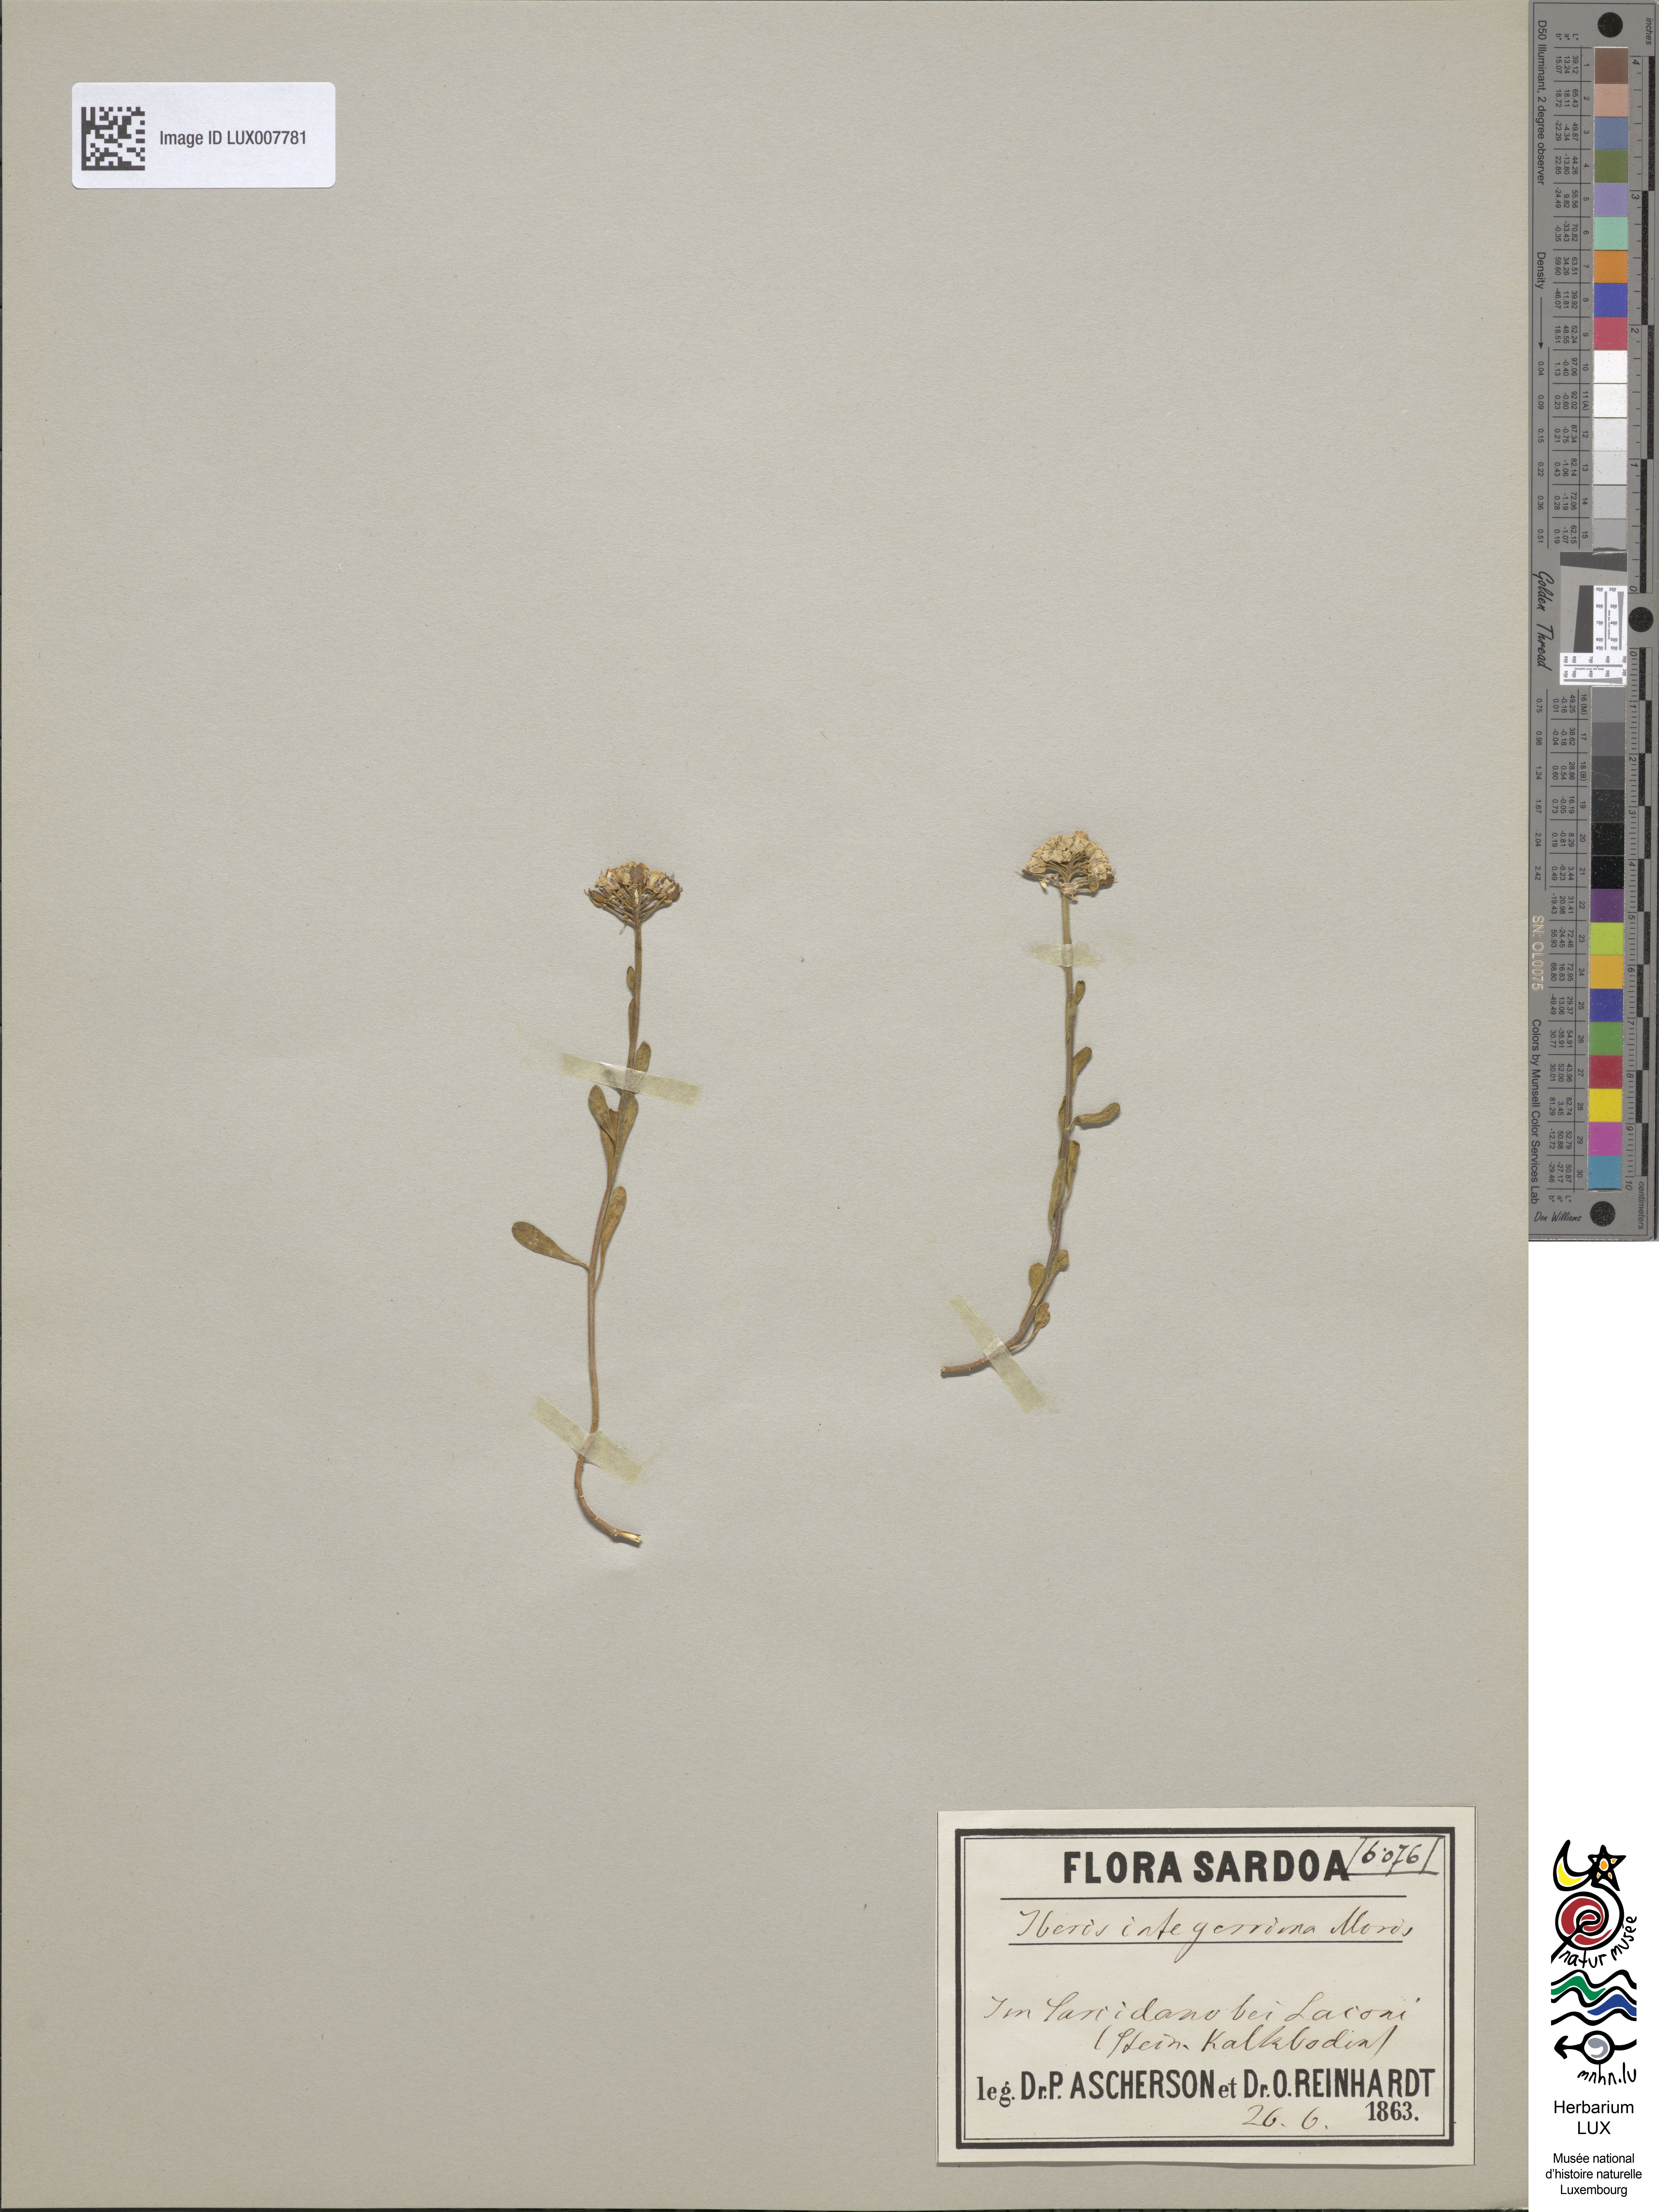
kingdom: Plantae
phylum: Tracheophyta
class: Magnoliopsida
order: Brassicales
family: Brassicaceae
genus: Iberis
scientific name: Iberis carnosa
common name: Pruit's candytuft
